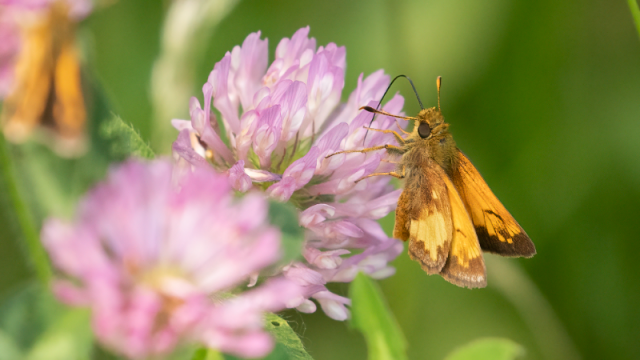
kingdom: Animalia
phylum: Arthropoda
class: Insecta
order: Lepidoptera
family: Hesperiidae
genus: Lon
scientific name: Lon hobomok
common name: Hobomok Skipper
